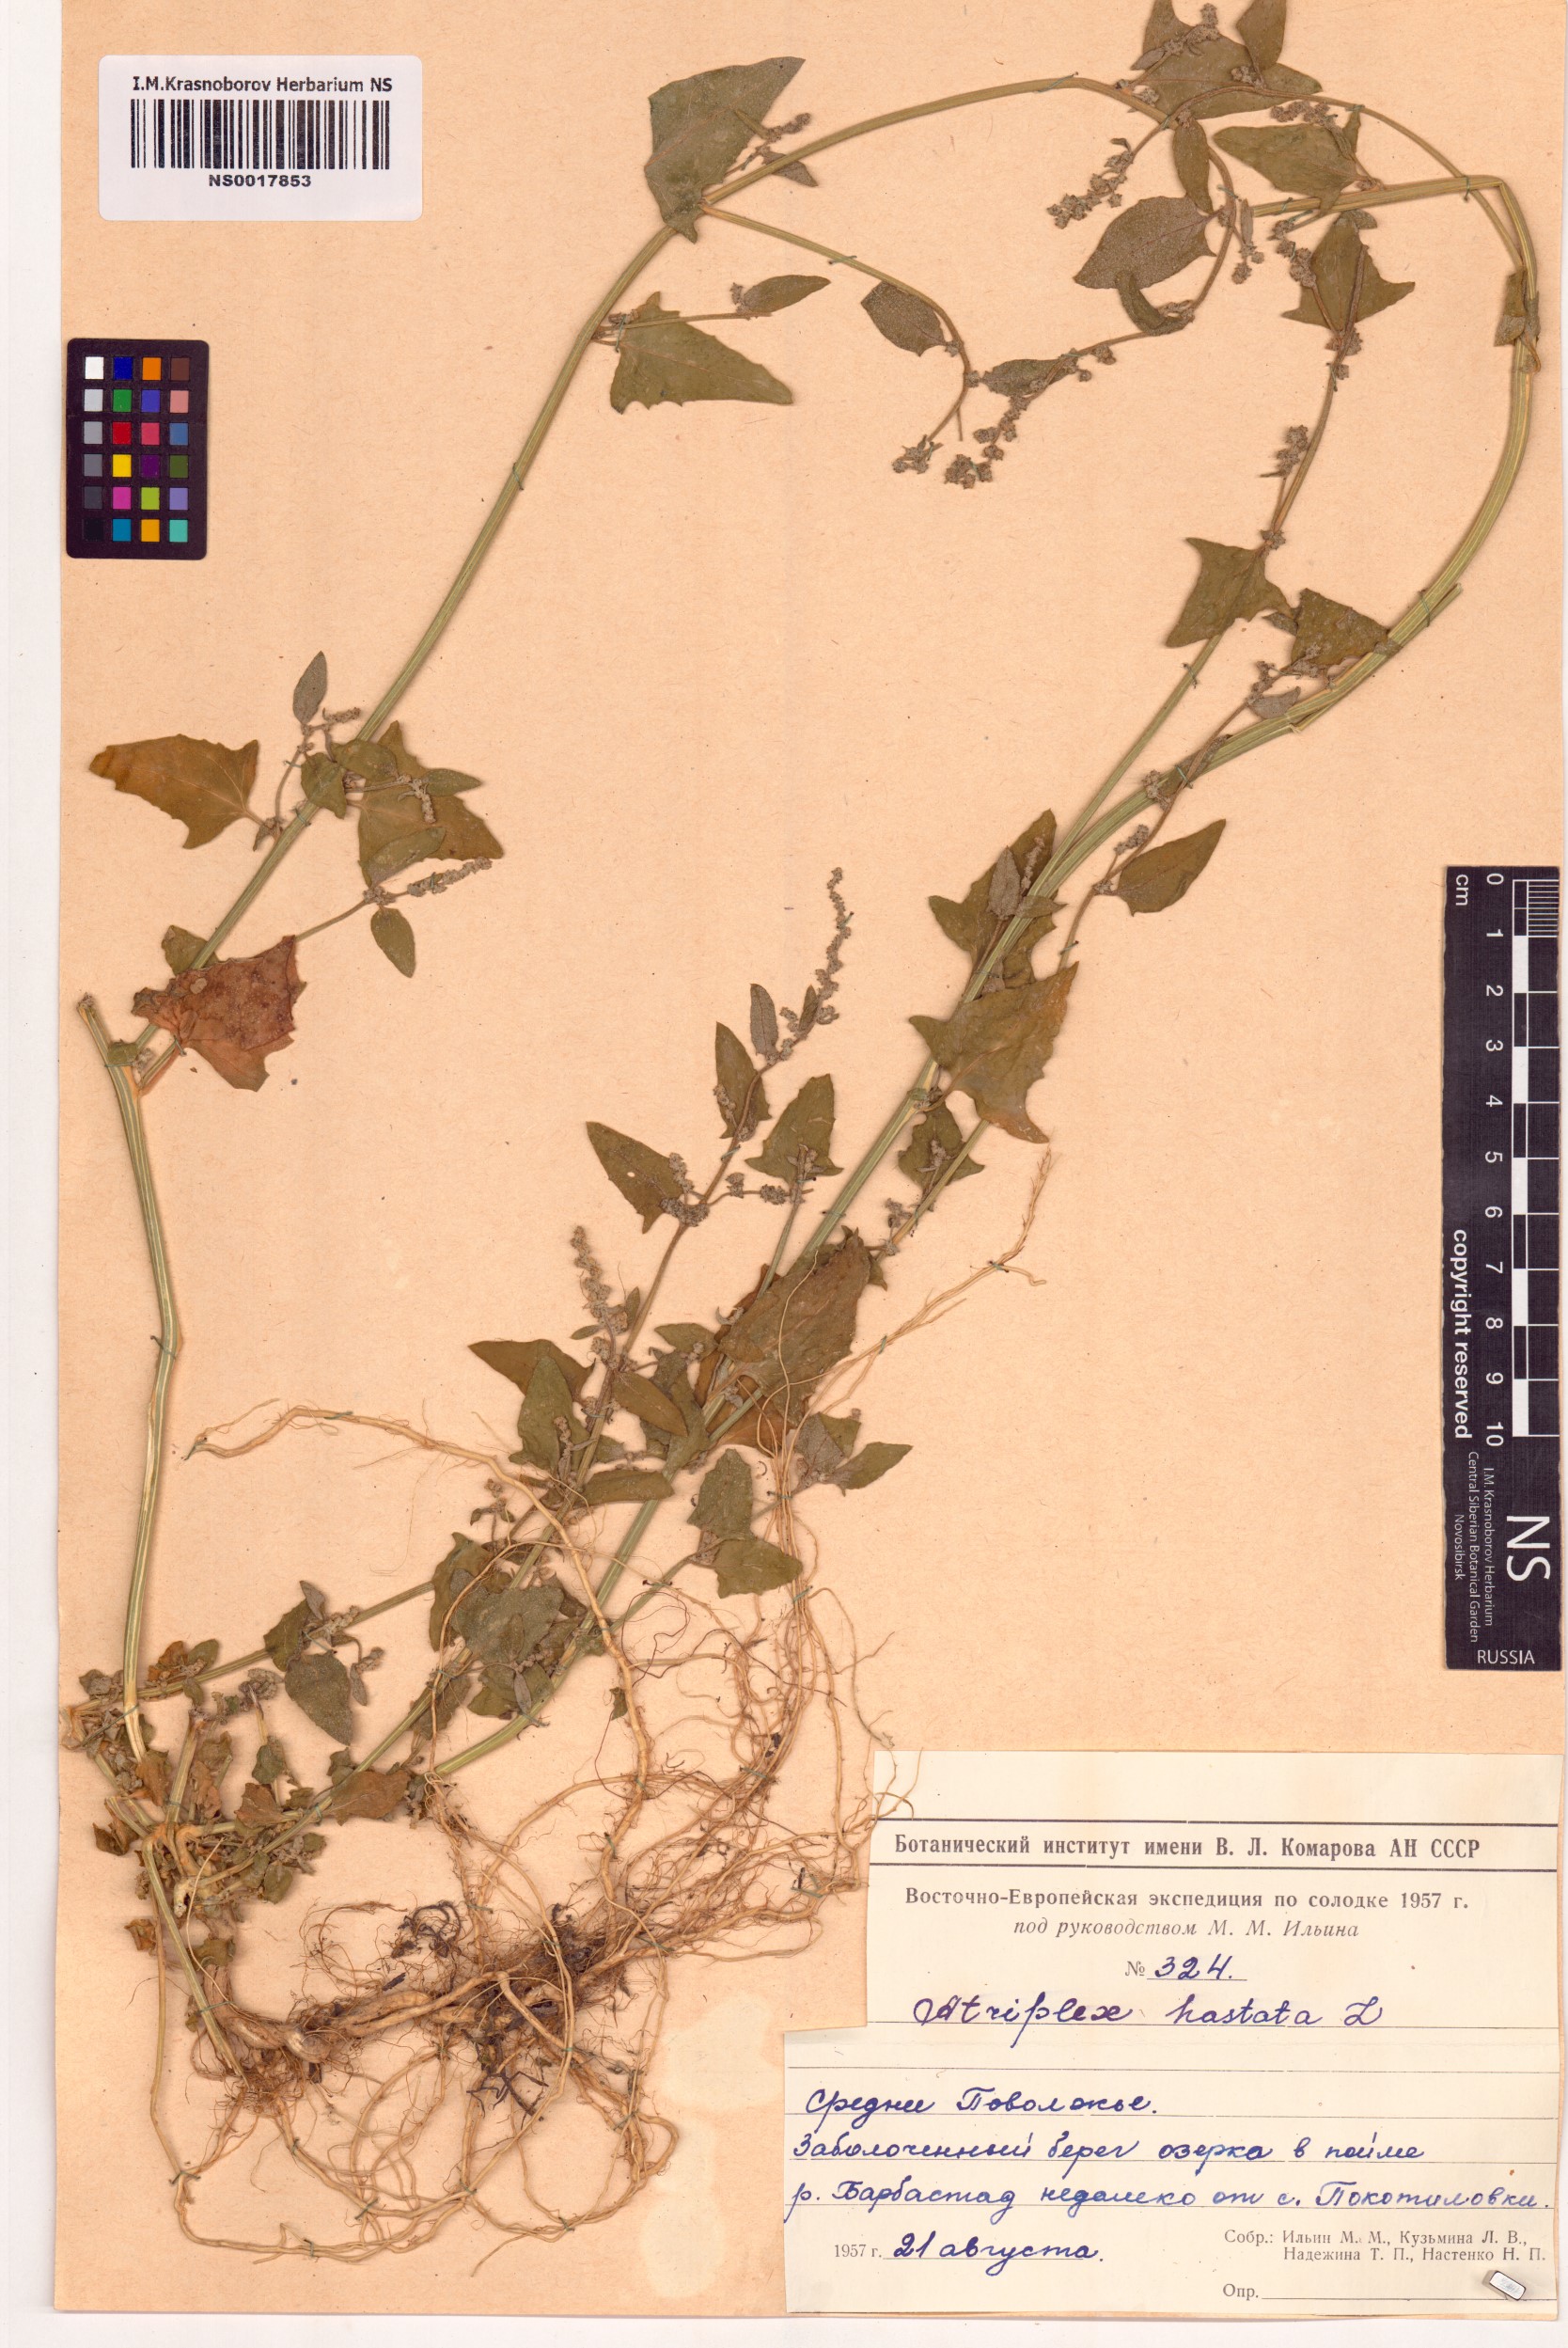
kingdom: Plantae
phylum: Tracheophyta
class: Magnoliopsida
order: Caryophyllales
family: Amaranthaceae
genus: Atriplex
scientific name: Atriplex calotheca
